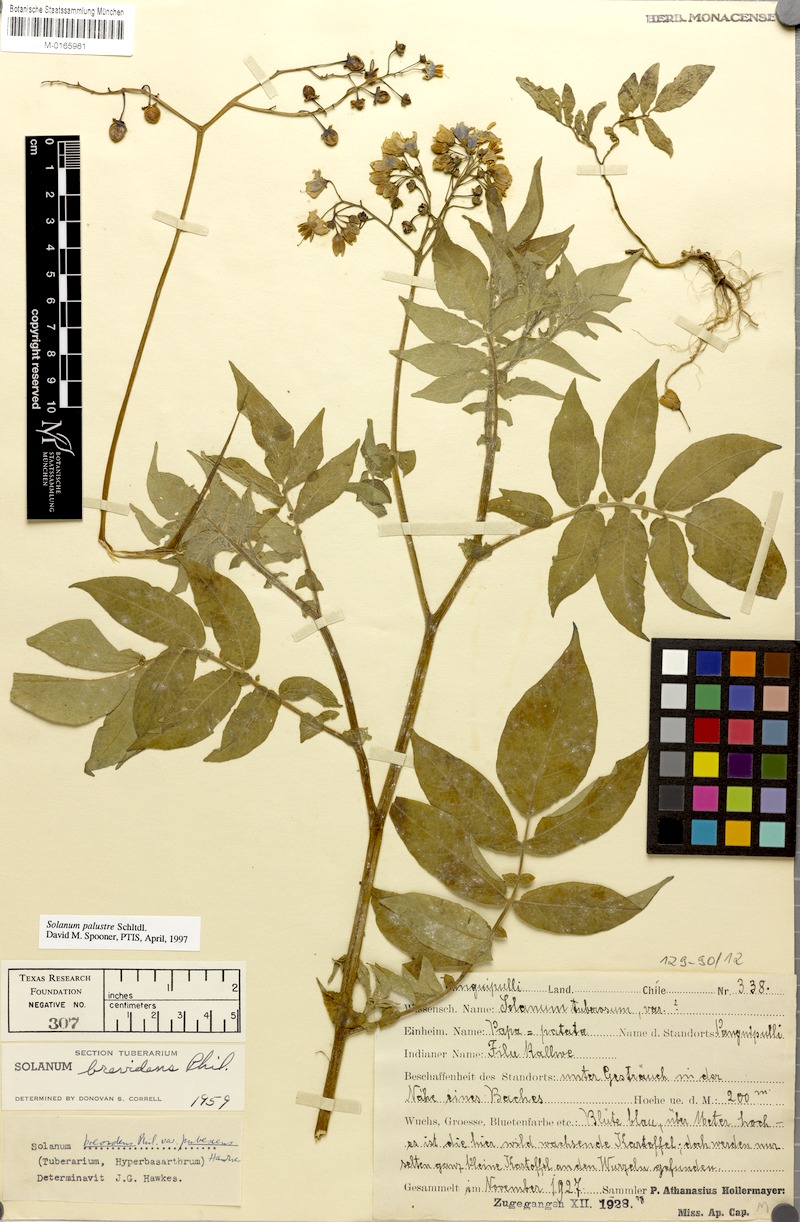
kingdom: Plantae
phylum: Tracheophyta
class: Magnoliopsida
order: Solanales
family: Solanaceae
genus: Solanum
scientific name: Solanum palustre
